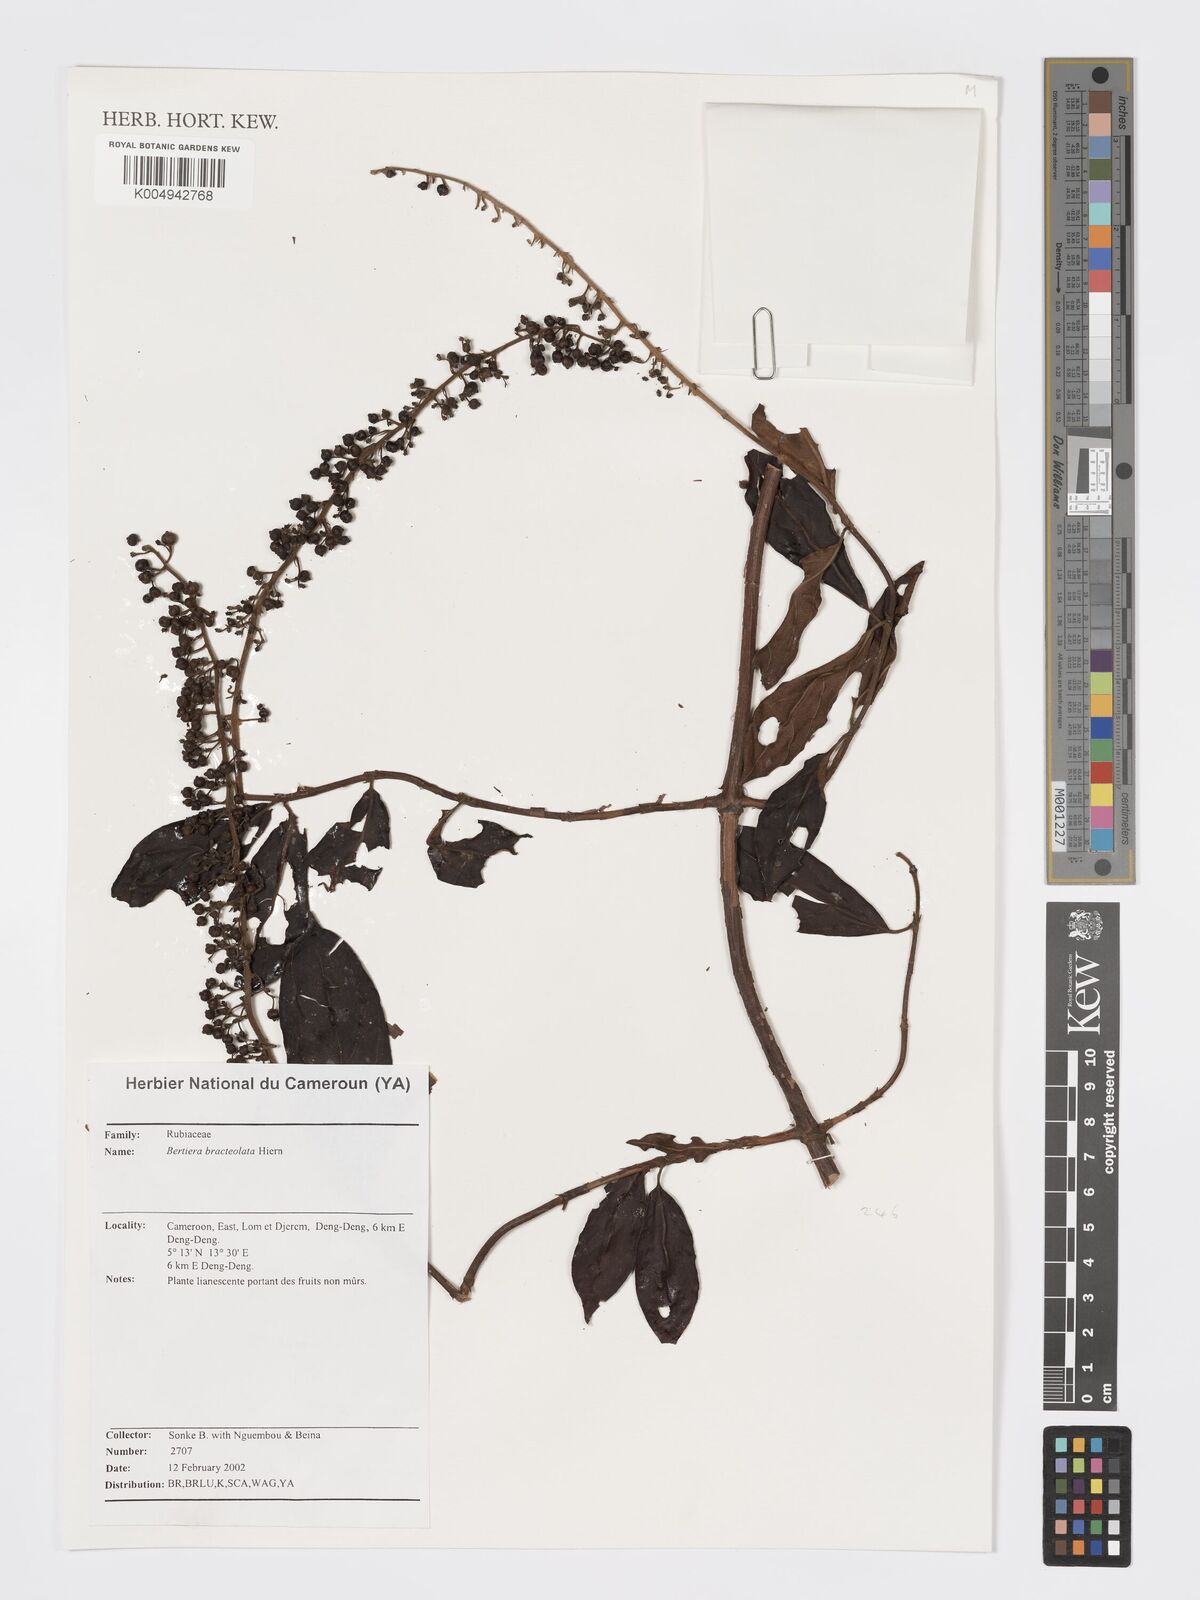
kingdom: Plantae
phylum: Tracheophyta
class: Magnoliopsida
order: Gentianales
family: Rubiaceae
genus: Bertiera
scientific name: Bertiera bracteolata
